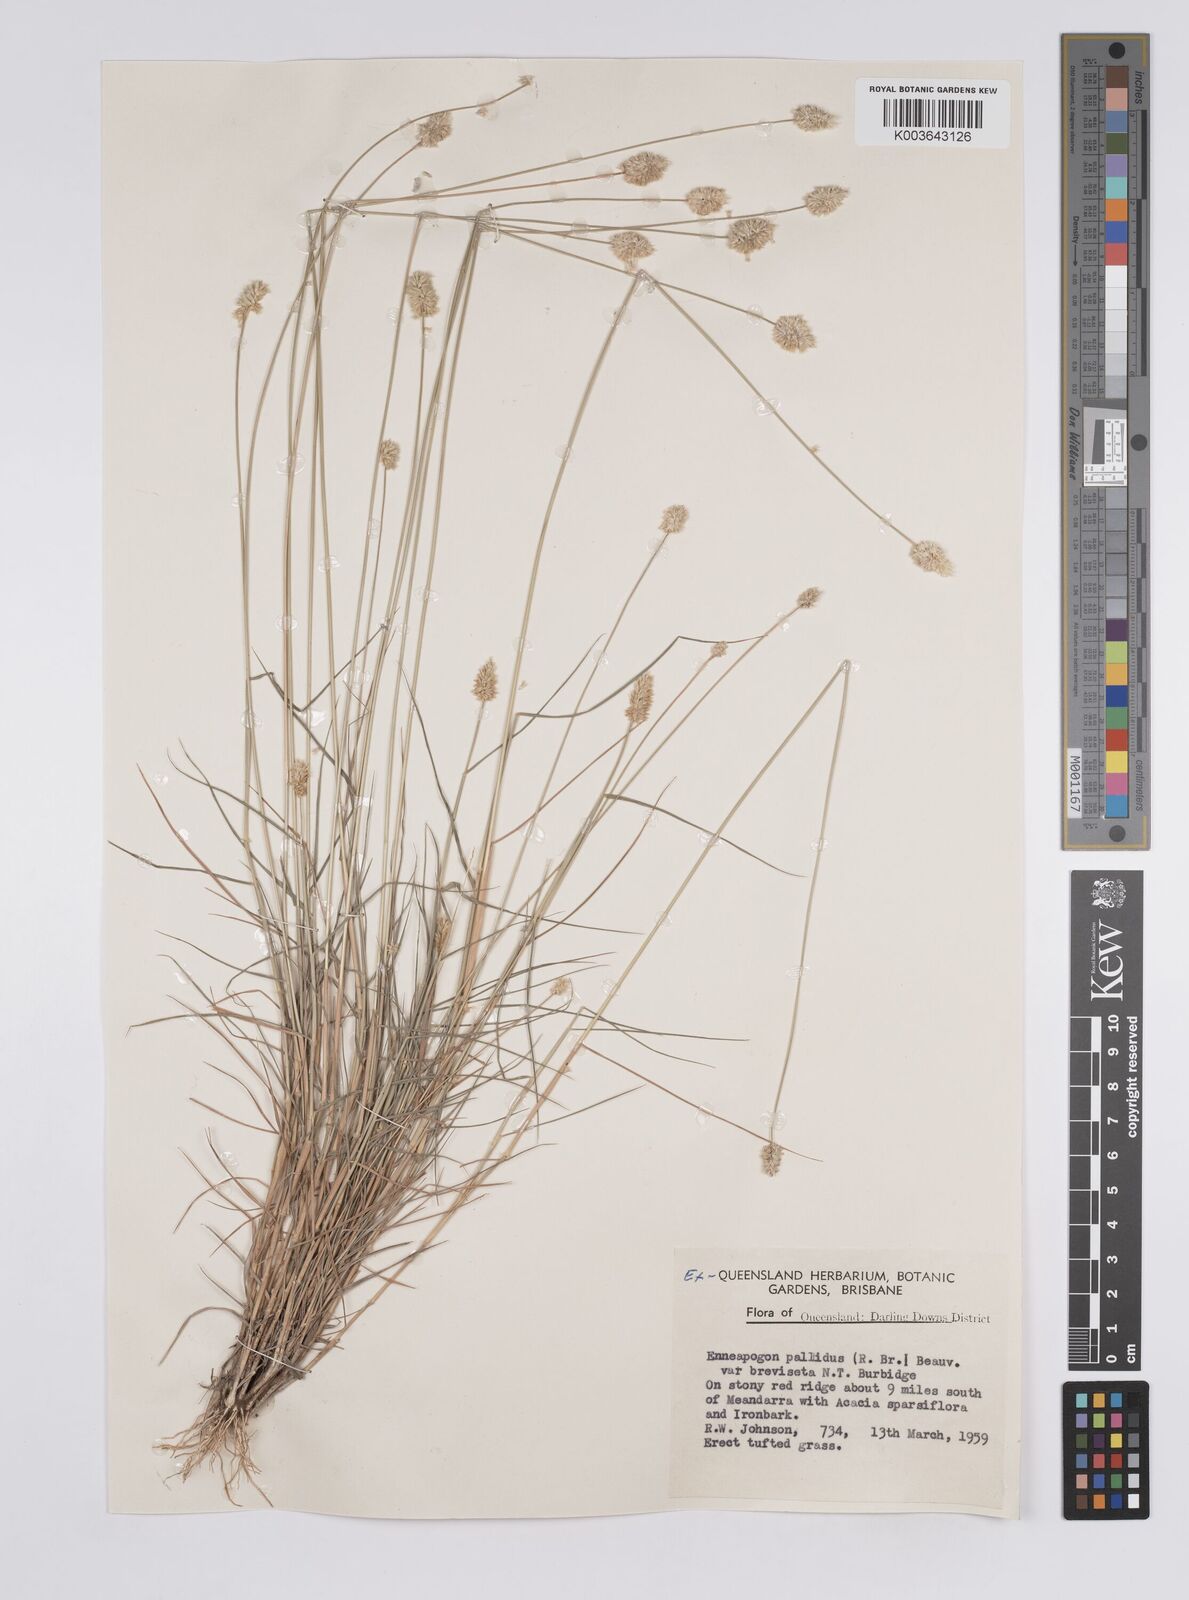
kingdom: Plantae
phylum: Tracheophyta
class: Liliopsida
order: Poales
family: Poaceae
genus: Enneapogon
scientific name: Enneapogon lindleyanus
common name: Conetop nineawn
